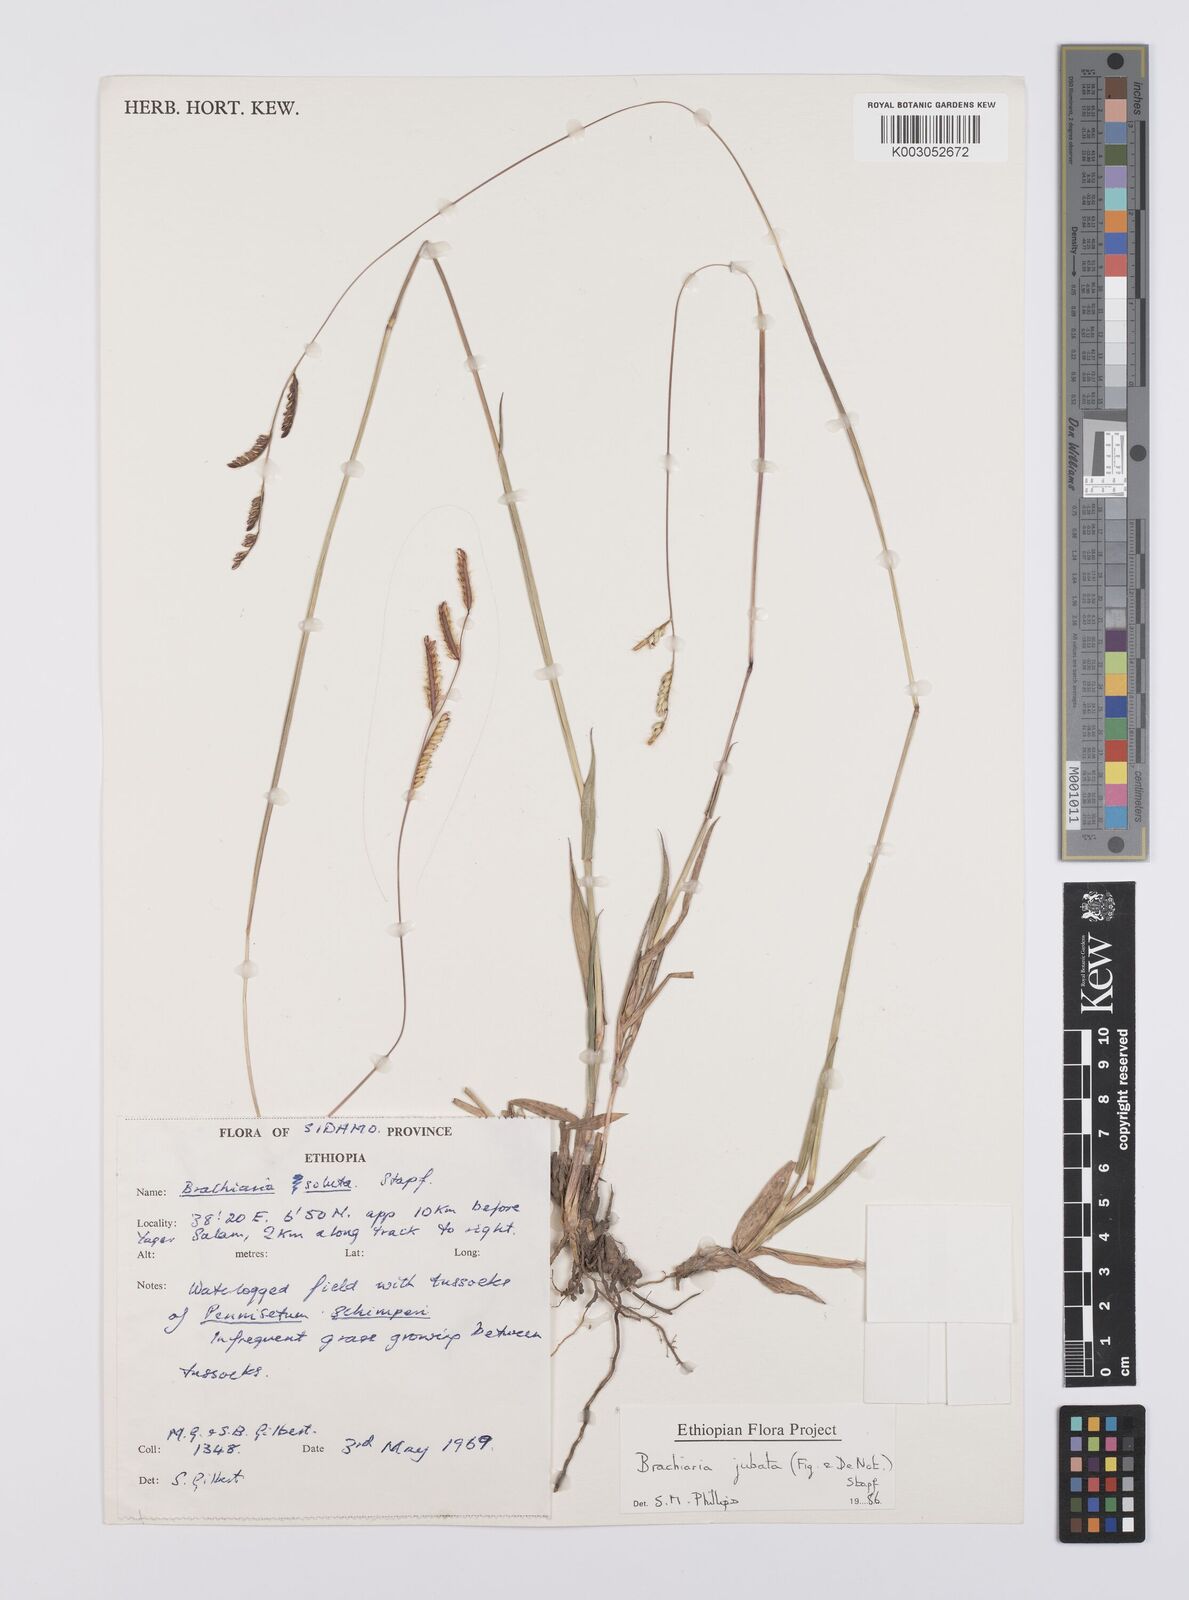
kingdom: Plantae
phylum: Tracheophyta
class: Liliopsida
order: Poales
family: Poaceae
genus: Urochloa
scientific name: Urochloa jubata
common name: Buffalograss
